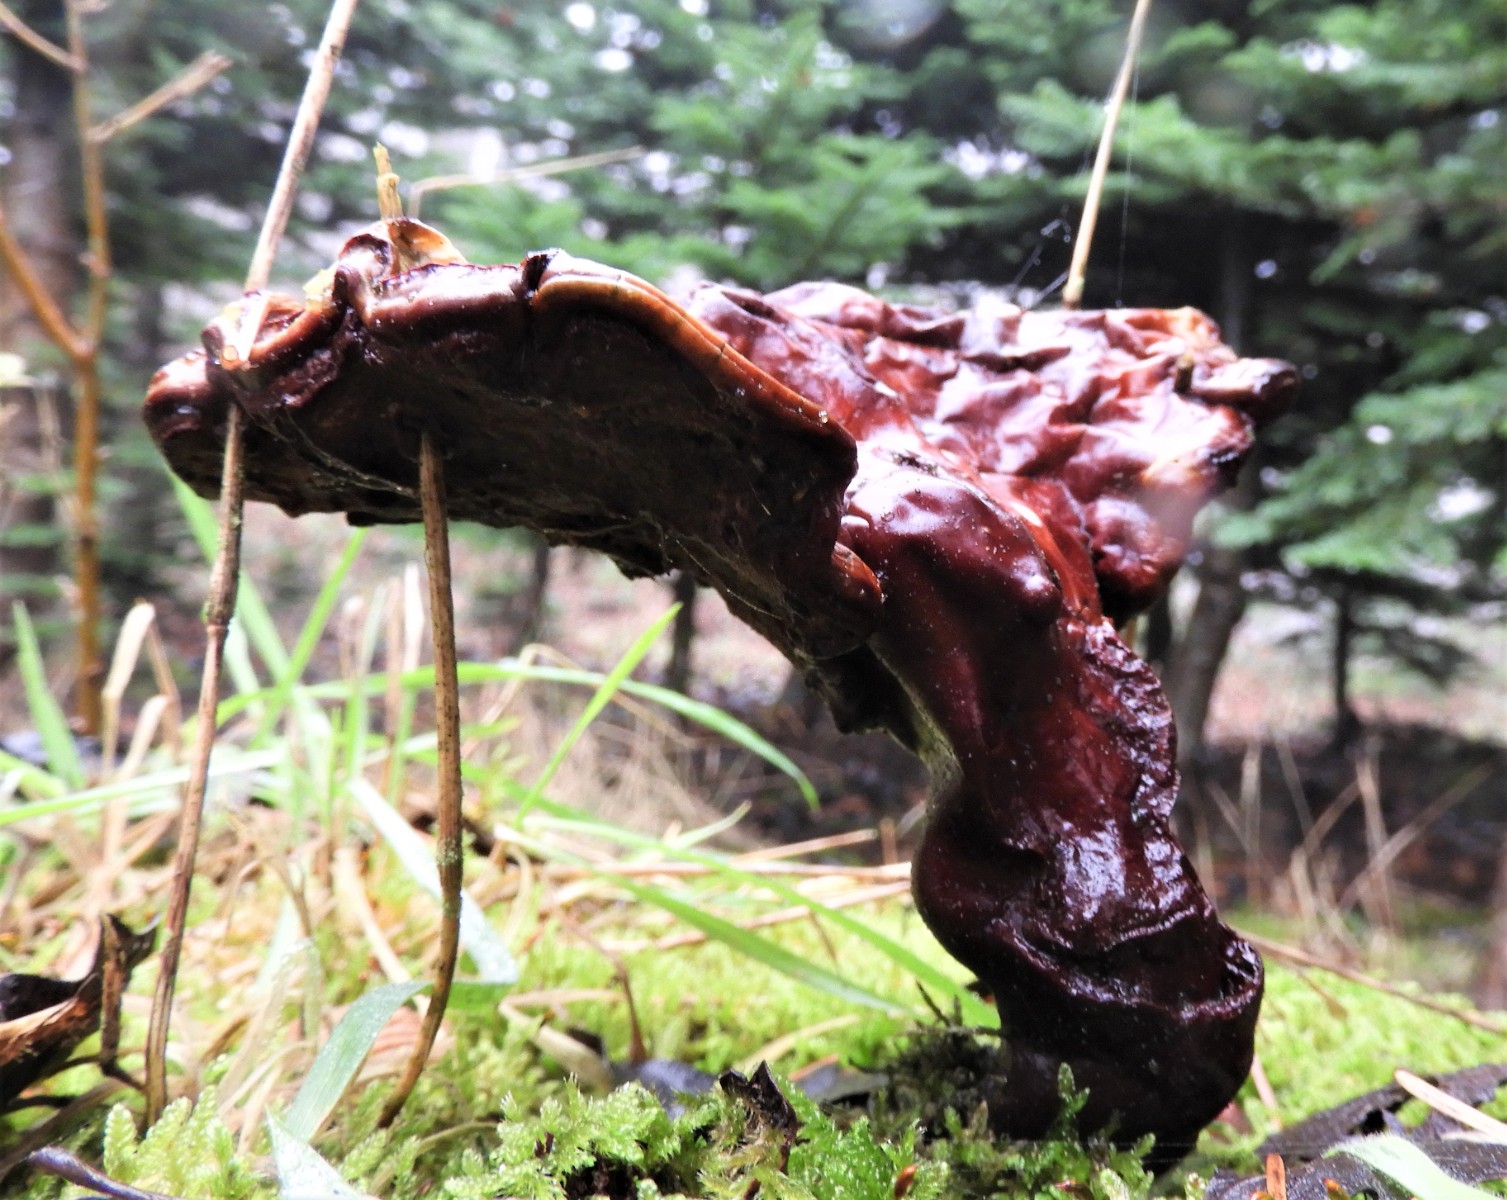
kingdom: Fungi
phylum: Basidiomycota
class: Agaricomycetes
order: Polyporales
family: Polyporaceae
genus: Ganoderma
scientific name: Ganoderma lucidum
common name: skinnende lakporesvamp
